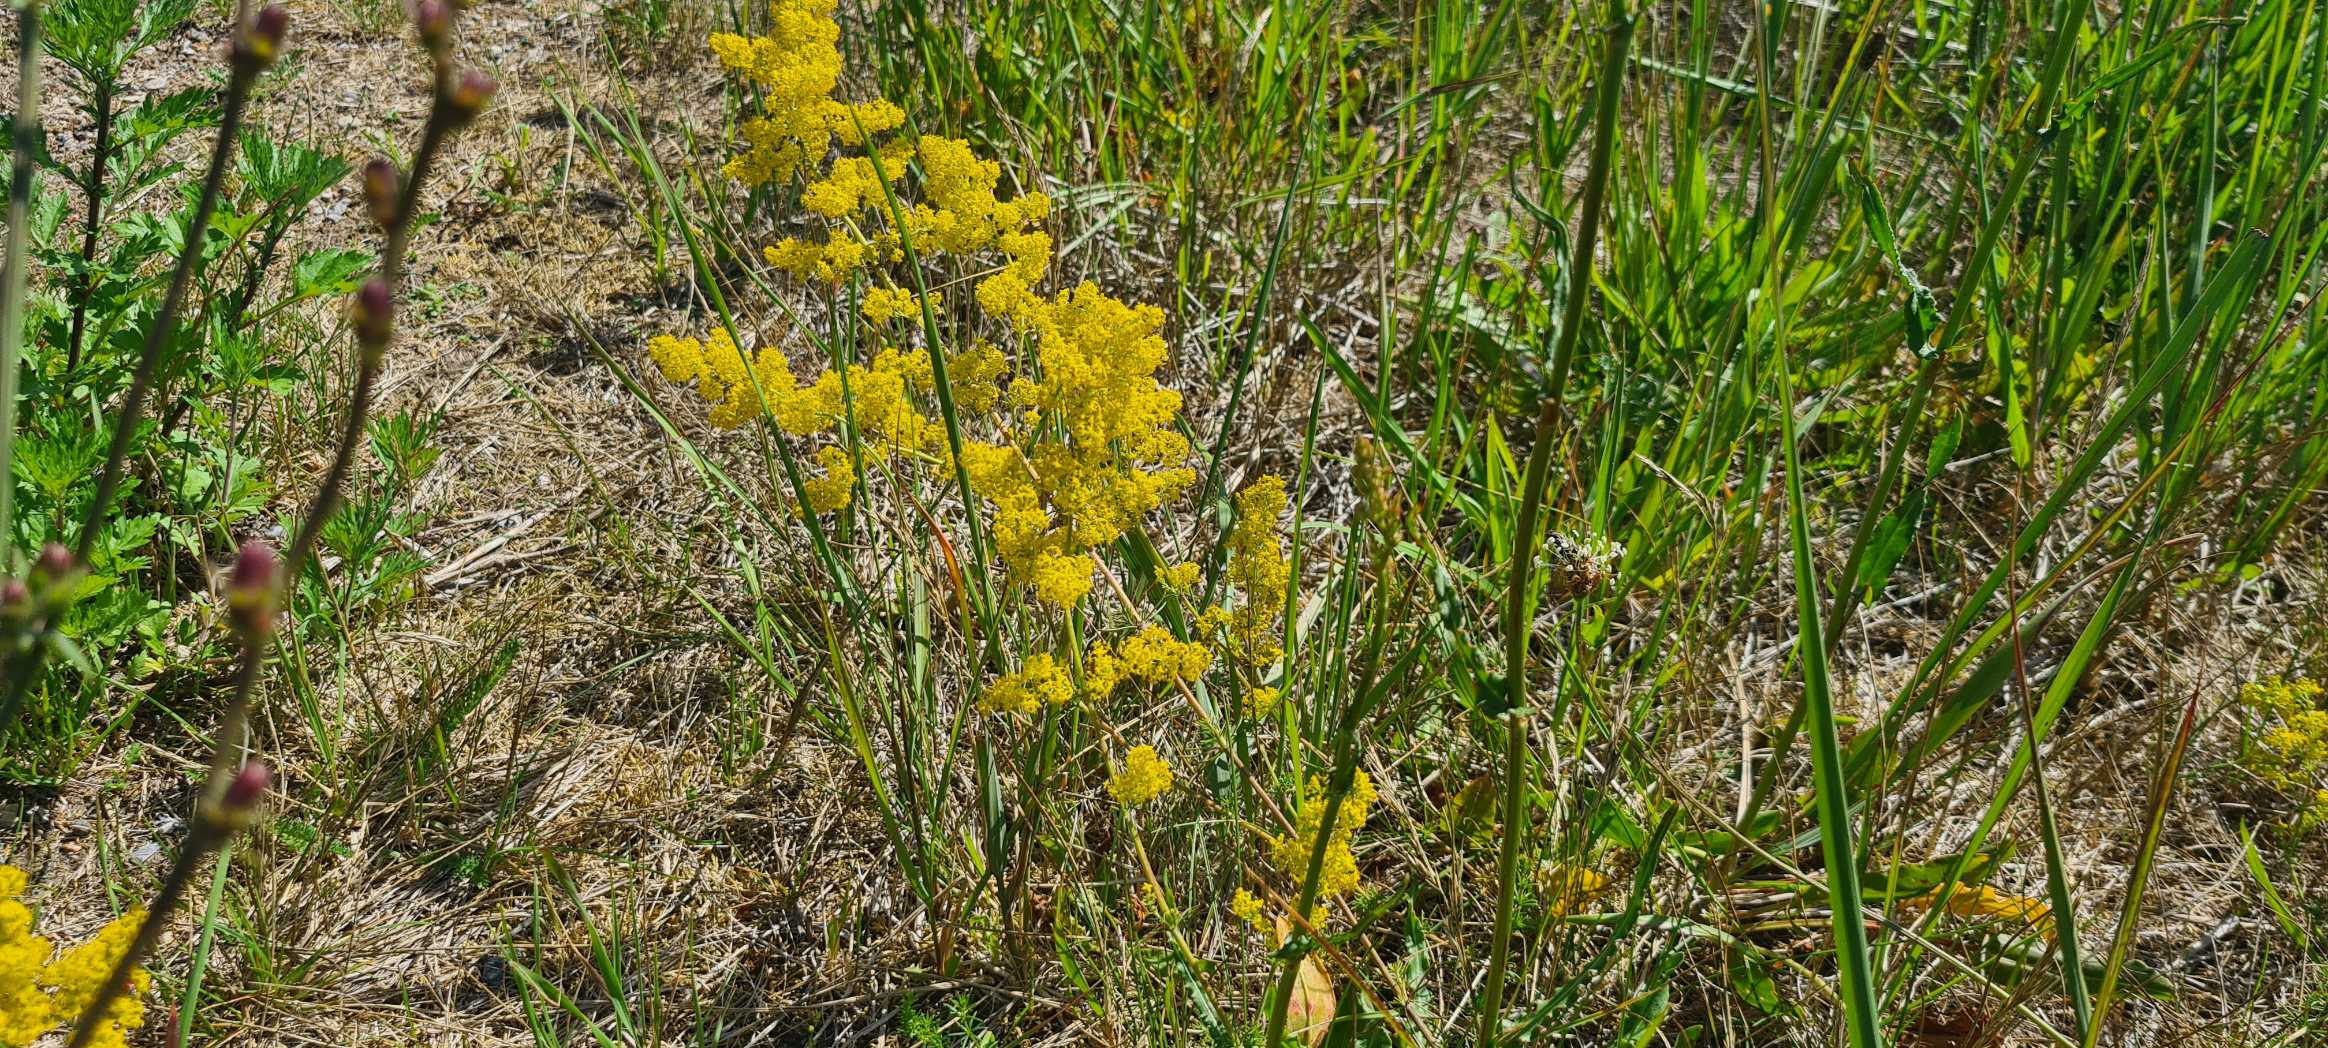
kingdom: Plantae
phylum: Tracheophyta
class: Magnoliopsida
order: Gentianales
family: Rubiaceae
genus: Galium
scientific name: Galium verum
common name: Gul snerre
